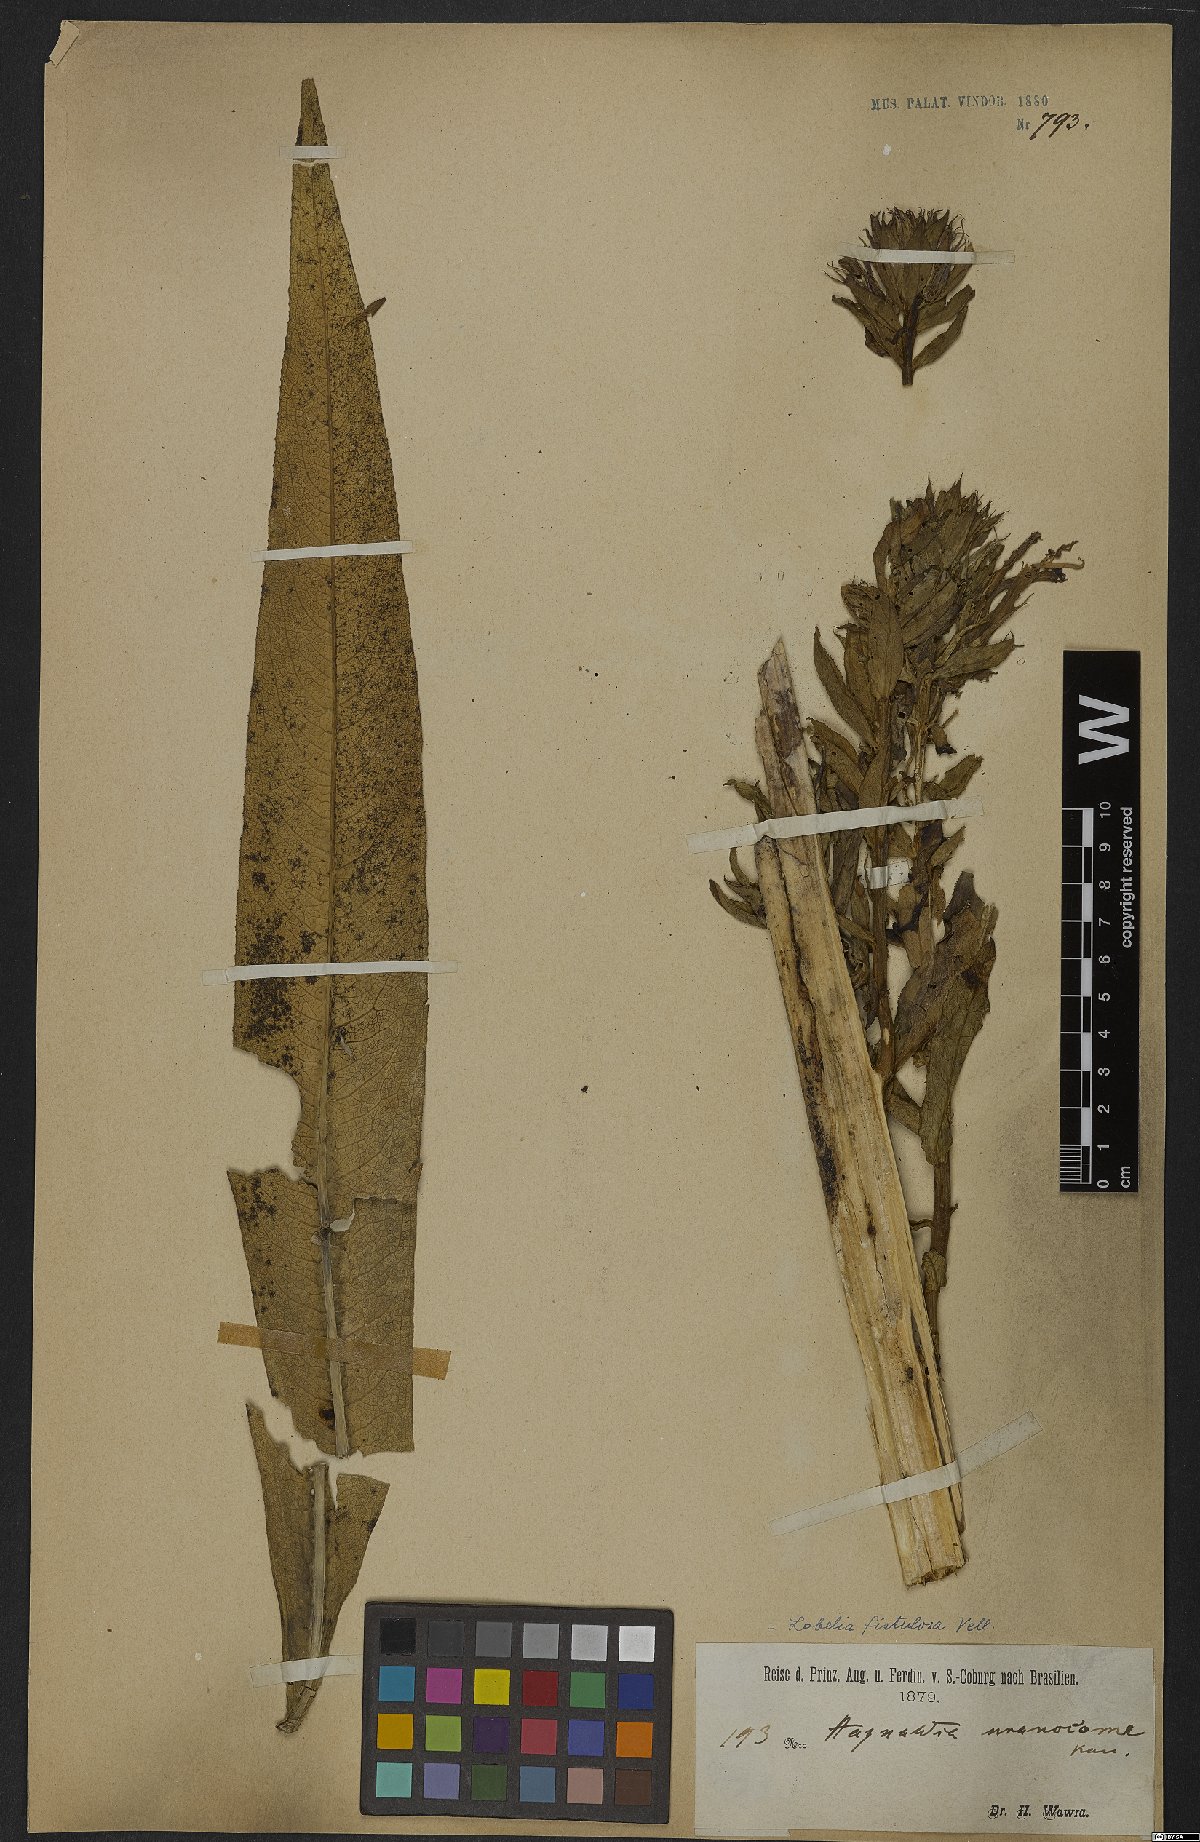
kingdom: Plantae
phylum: Tracheophyta
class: Magnoliopsida
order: Asterales
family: Campanulaceae
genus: Lobelia
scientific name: Lobelia fistulosa
